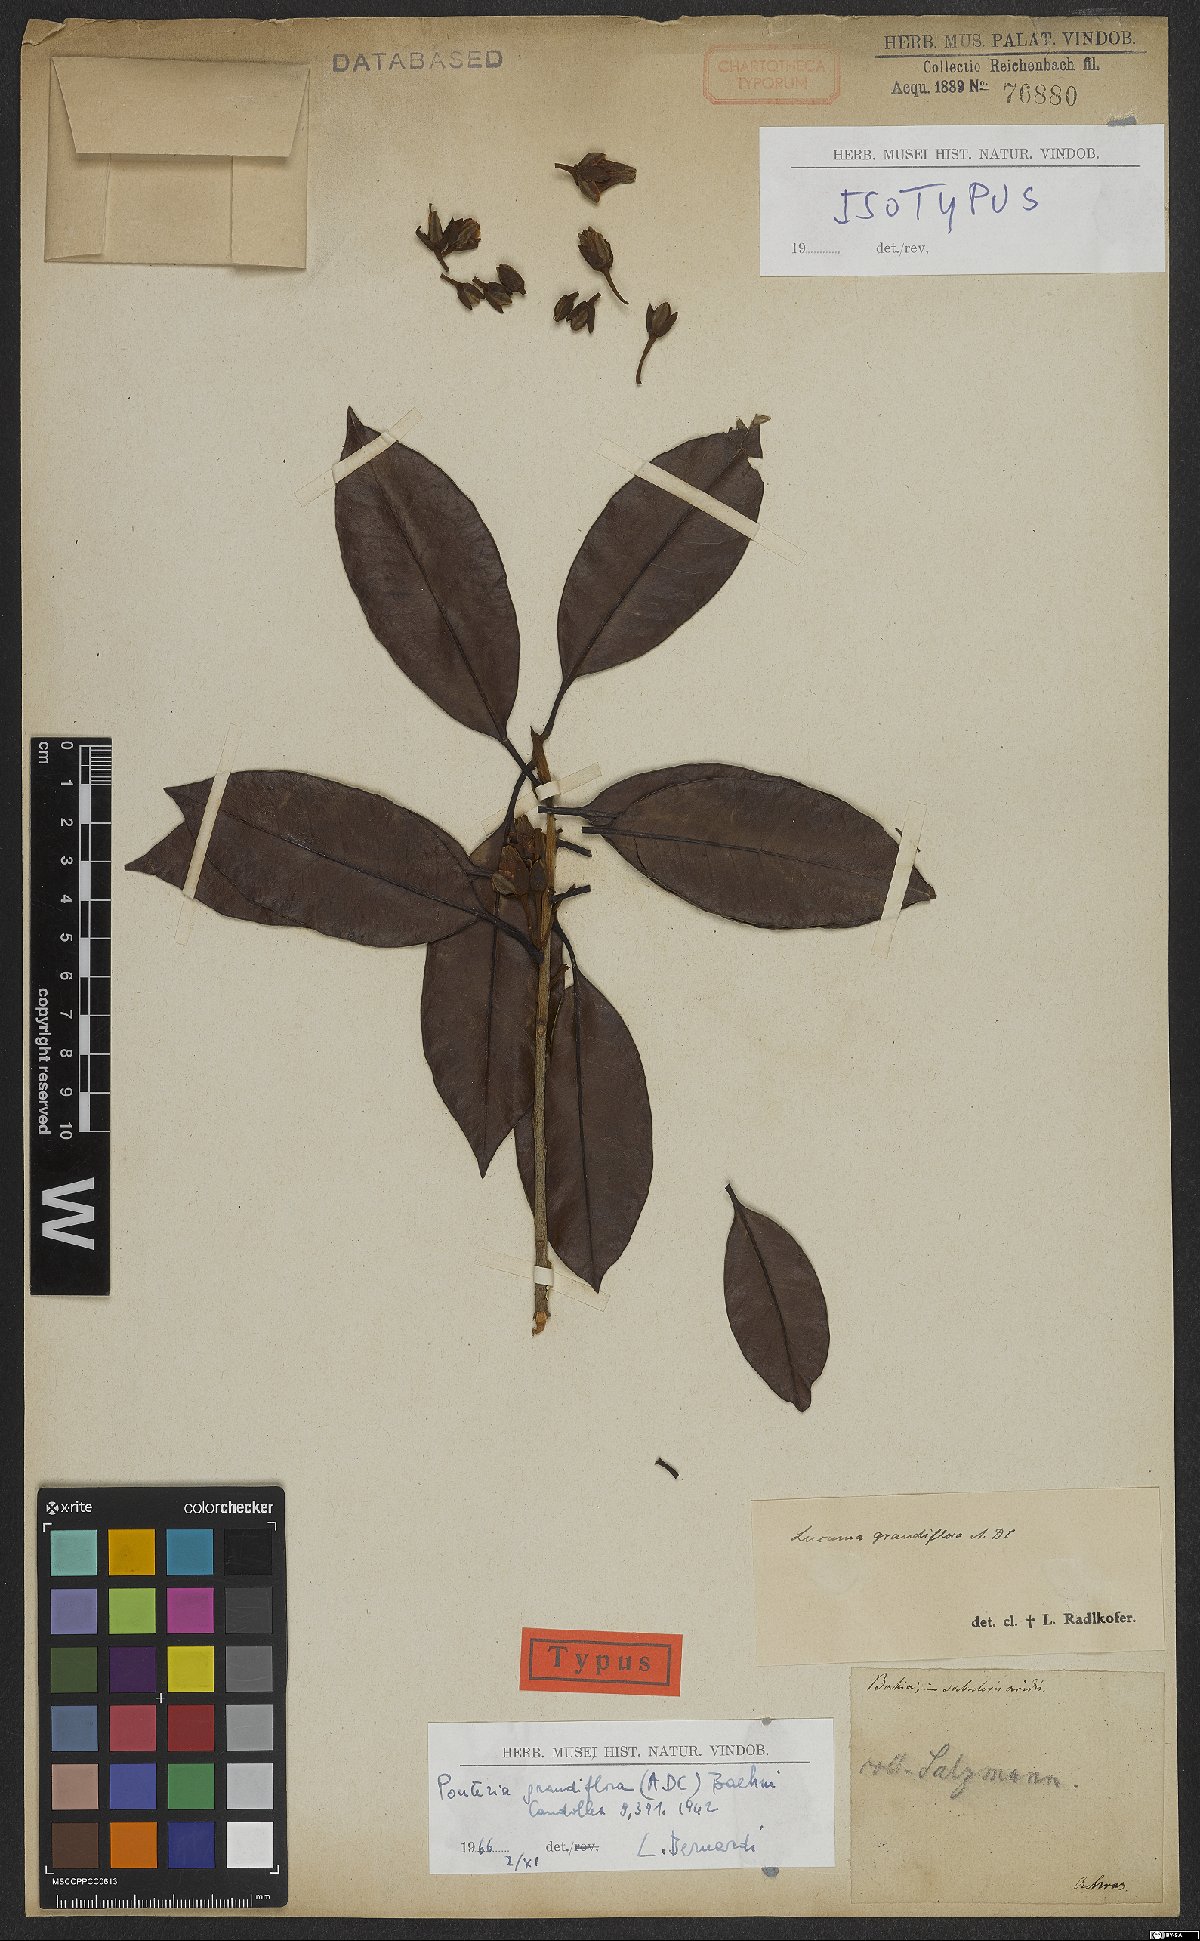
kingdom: Plantae
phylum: Tracheophyta
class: Magnoliopsida
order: Ericales
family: Sapotaceae
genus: Pouteria
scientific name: Pouteria grandiflora
